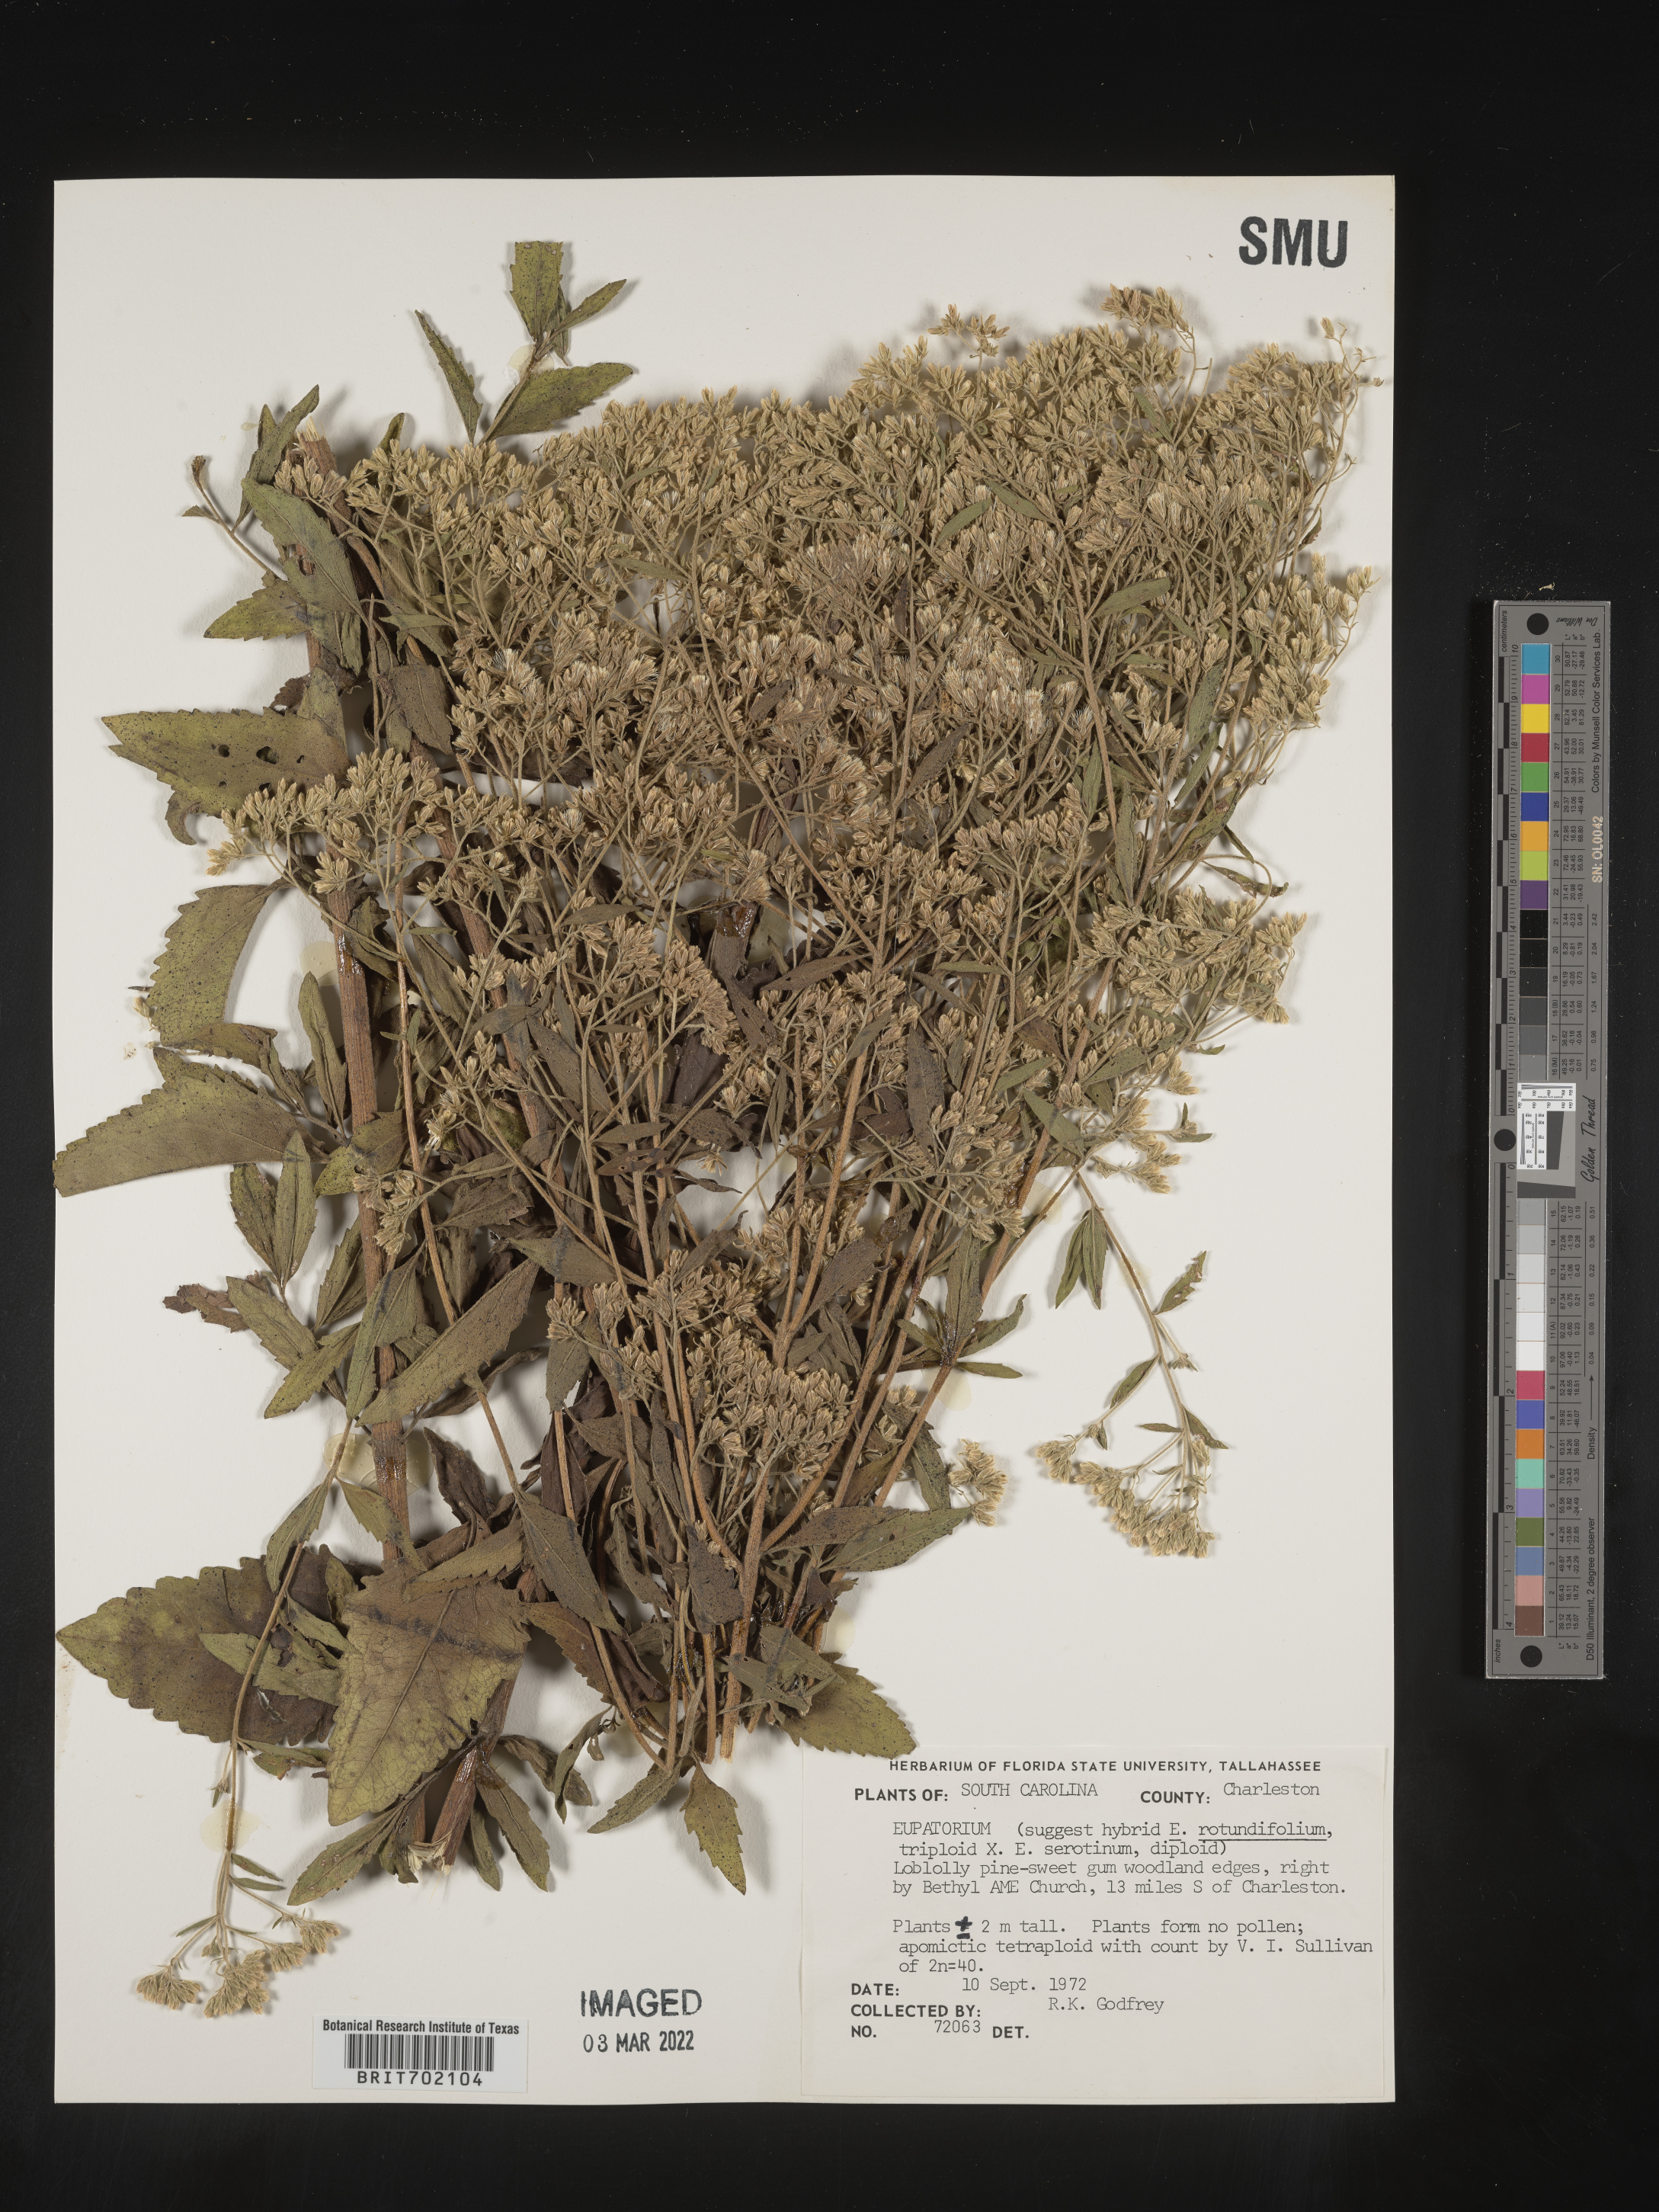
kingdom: Plantae
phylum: Tracheophyta
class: Magnoliopsida
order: Asterales
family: Asteraceae
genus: Eupatorium
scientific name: Eupatorium rotundifolium
